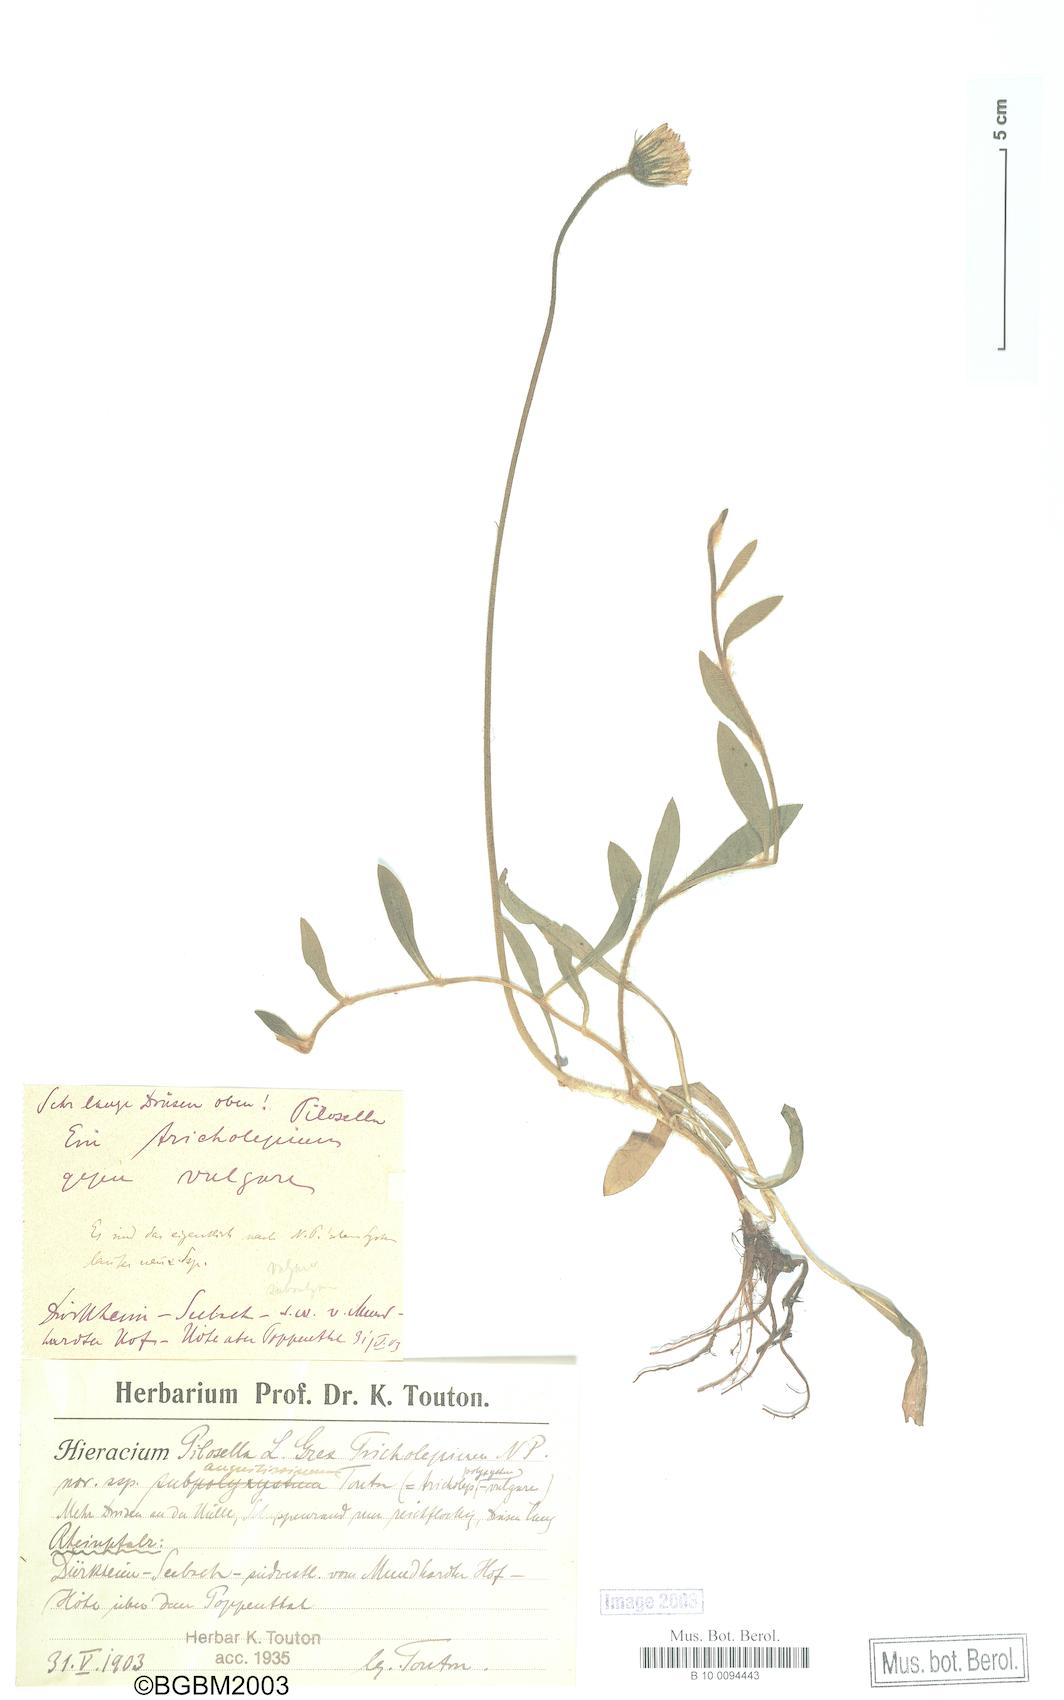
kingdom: Plantae
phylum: Tracheophyta
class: Magnoliopsida
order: Asterales
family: Asteraceae
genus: Pilosella
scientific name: Pilosella officinarum
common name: Mouse-ear hawkweed
